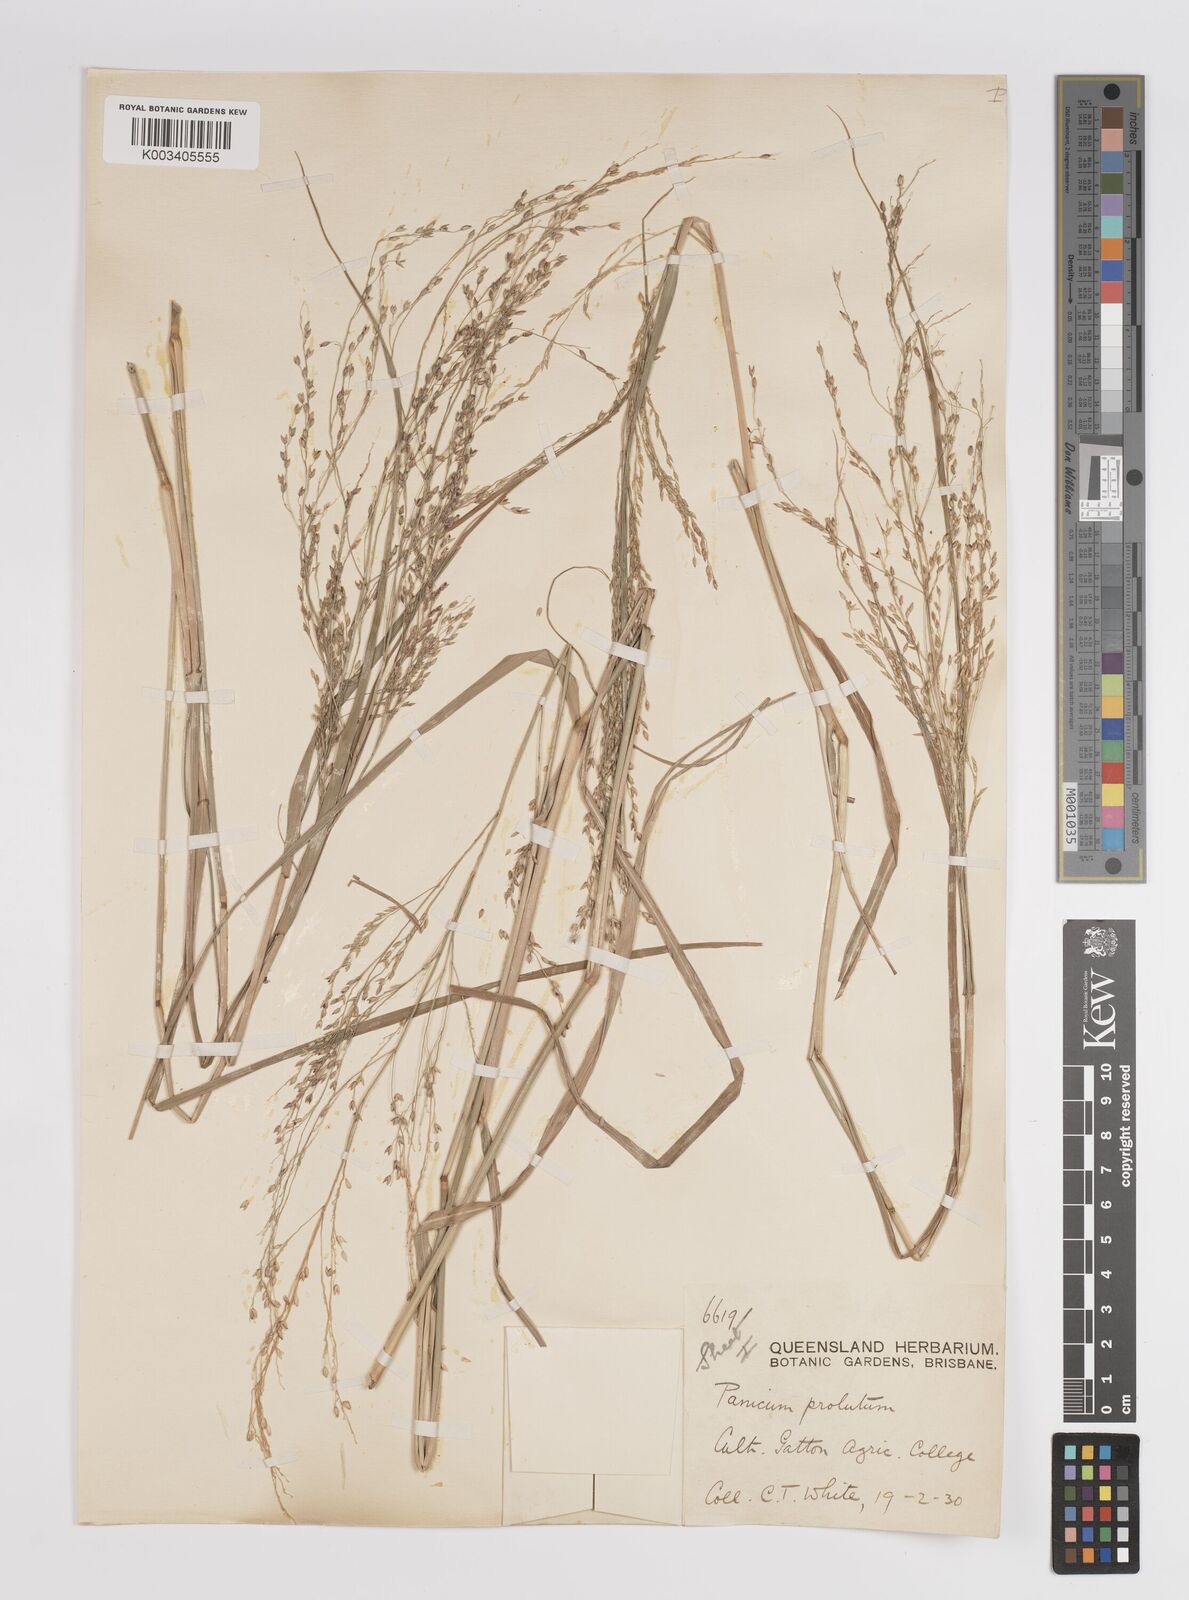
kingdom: Plantae
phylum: Tracheophyta
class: Liliopsida
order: Poales
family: Poaceae
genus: Panicum
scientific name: Panicum
